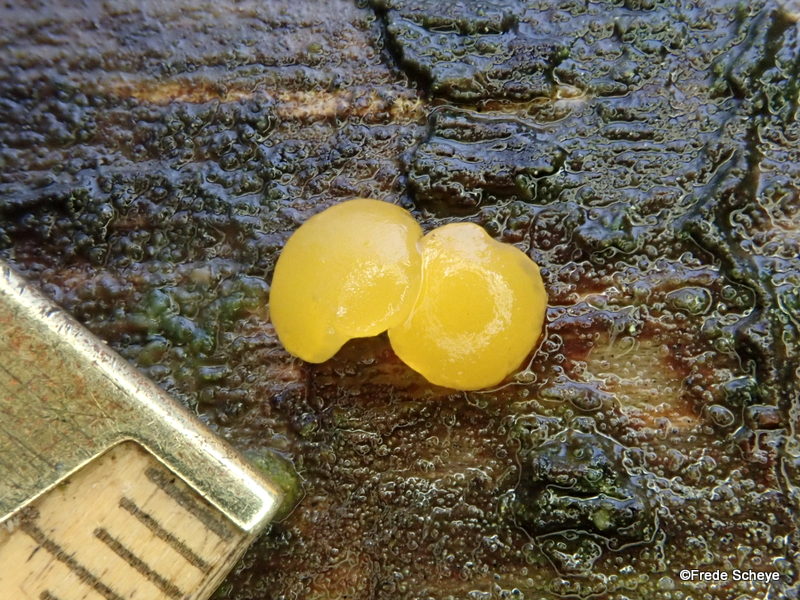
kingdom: Fungi
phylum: Basidiomycota
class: Dacrymycetes
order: Dacrymycetales
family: Dacrymycetaceae
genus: Dacrymyces
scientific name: Dacrymyces stillatus
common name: almindelig tåresvamp
